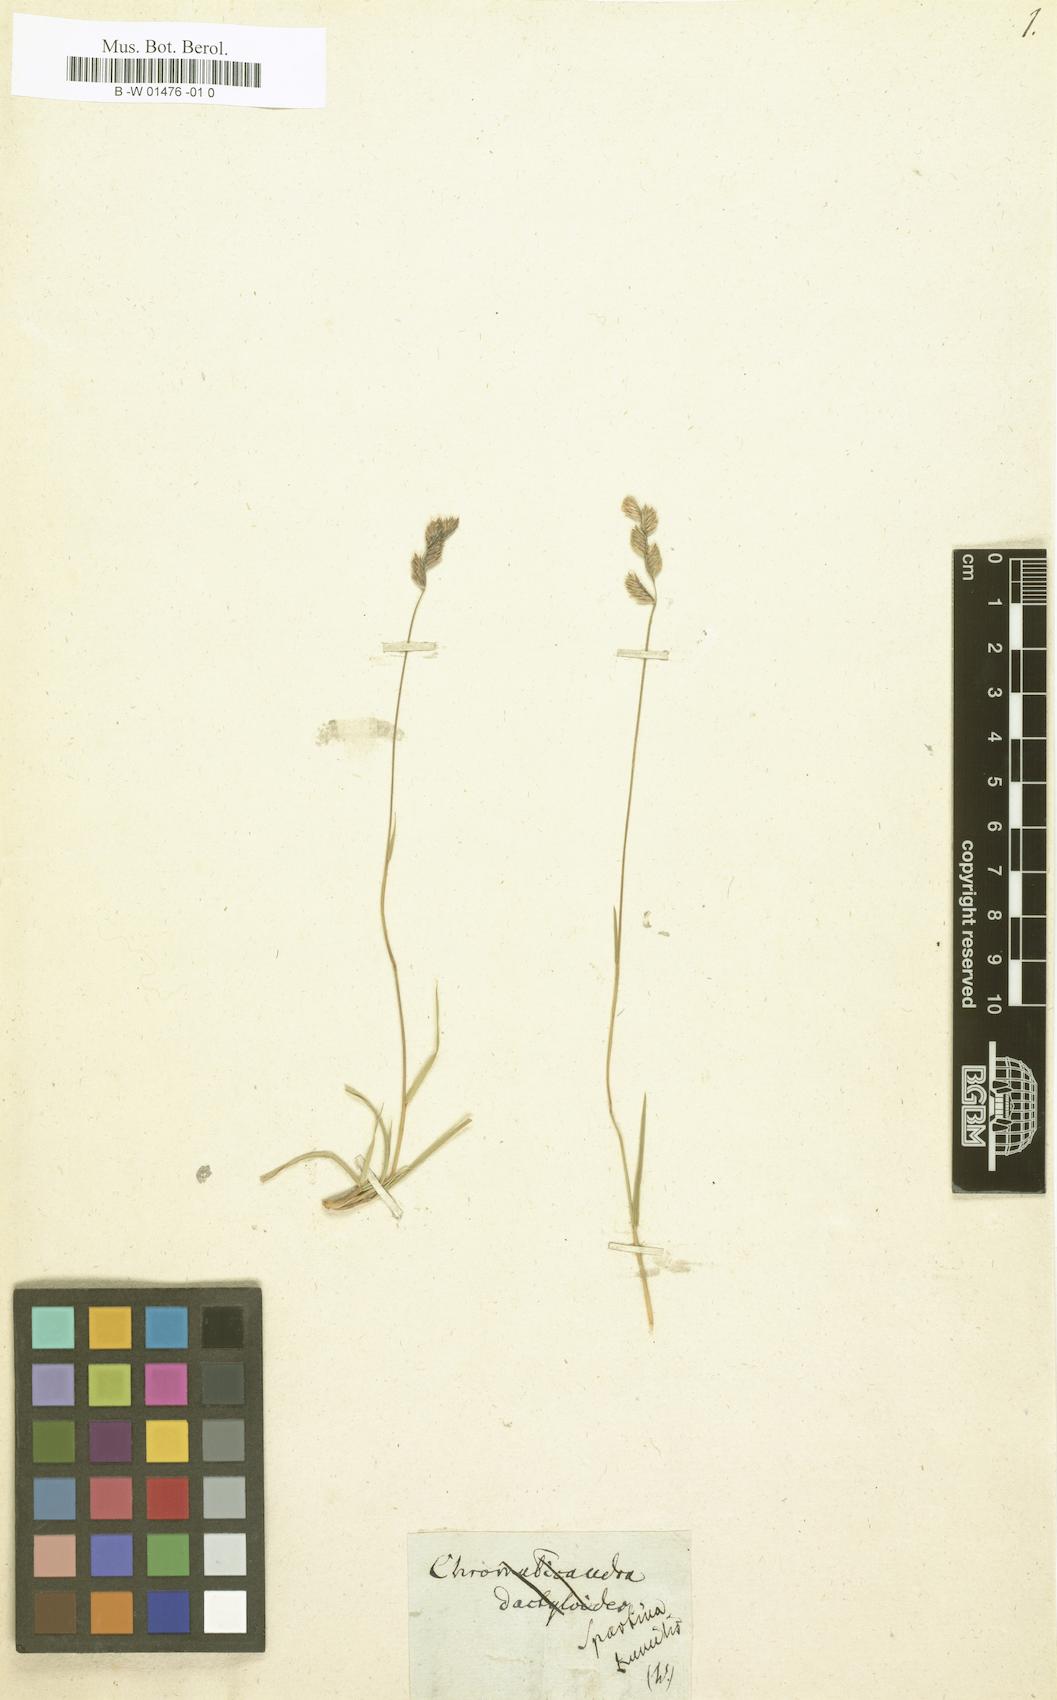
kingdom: Plantae
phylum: Tracheophyta
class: Liliopsida
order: Poales
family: Poaceae
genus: Bouteloua
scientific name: Bouteloua chondrosioides
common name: Sprucetop grama
